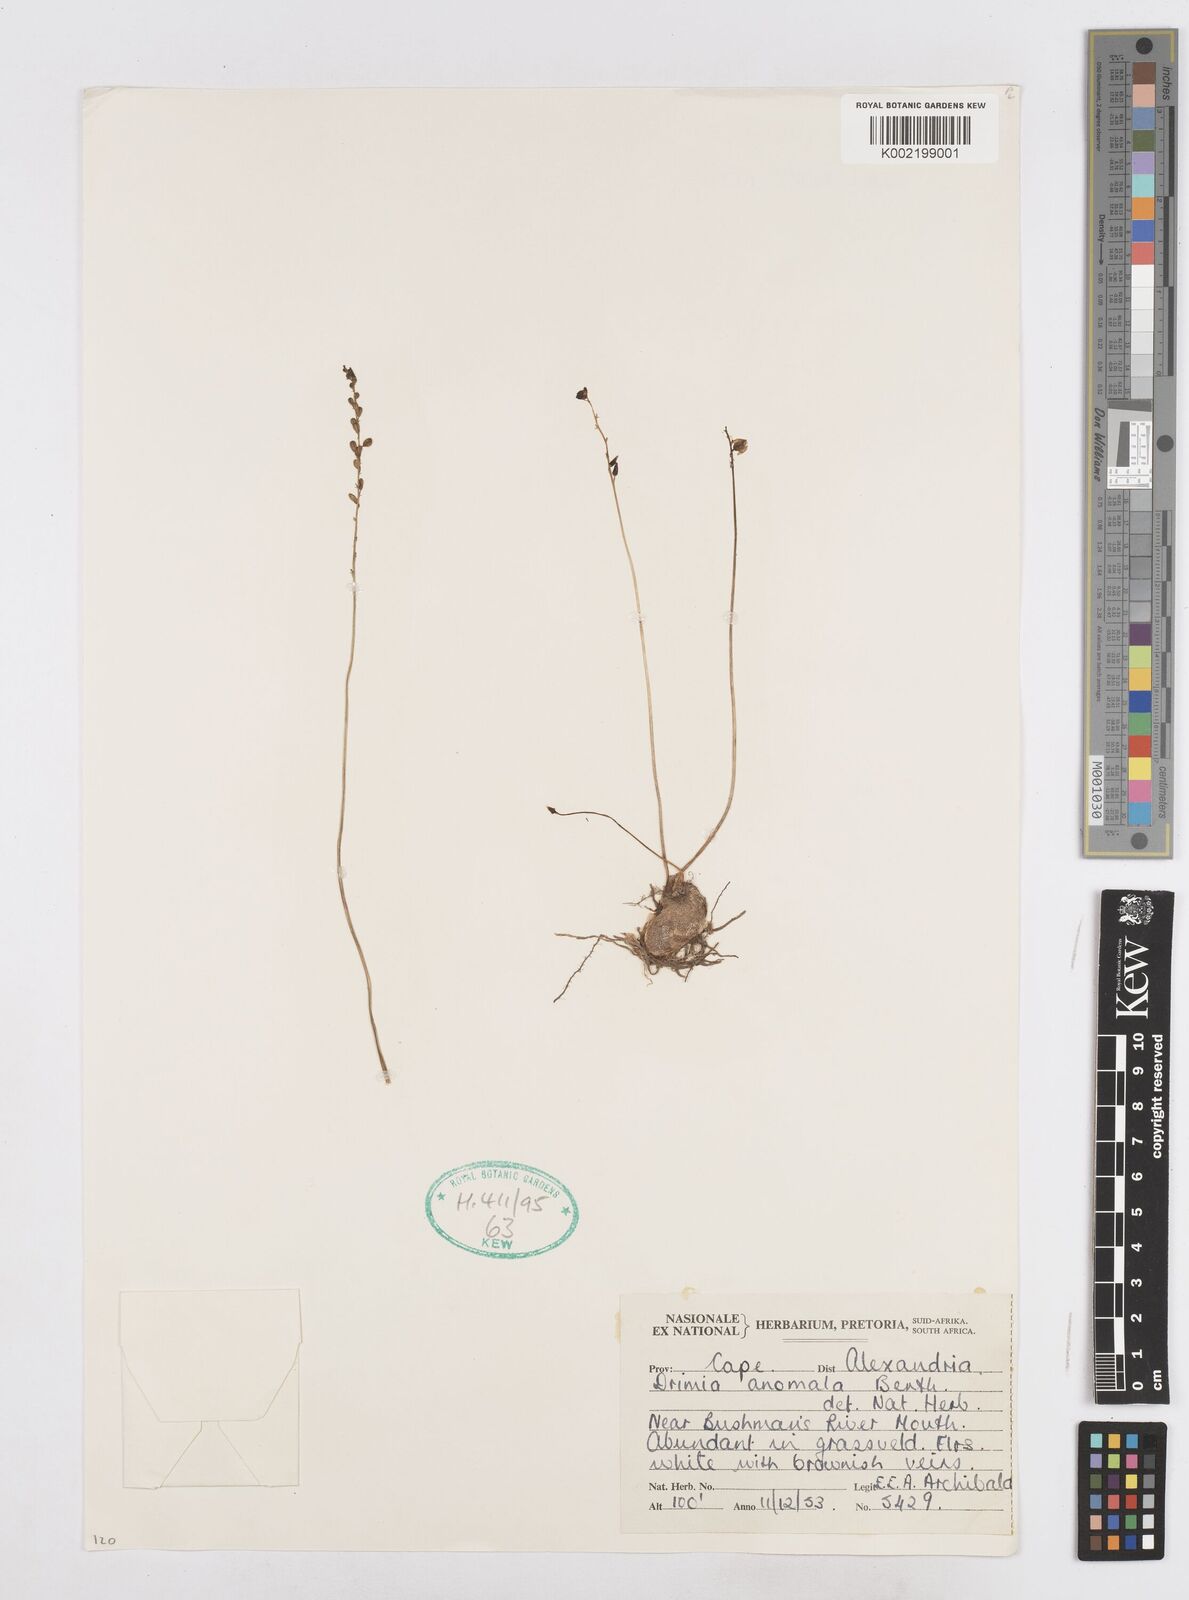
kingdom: Plantae
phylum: Tracheophyta
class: Liliopsida
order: Asparagales
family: Asparagaceae
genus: Drimia
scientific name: Drimia anomala
